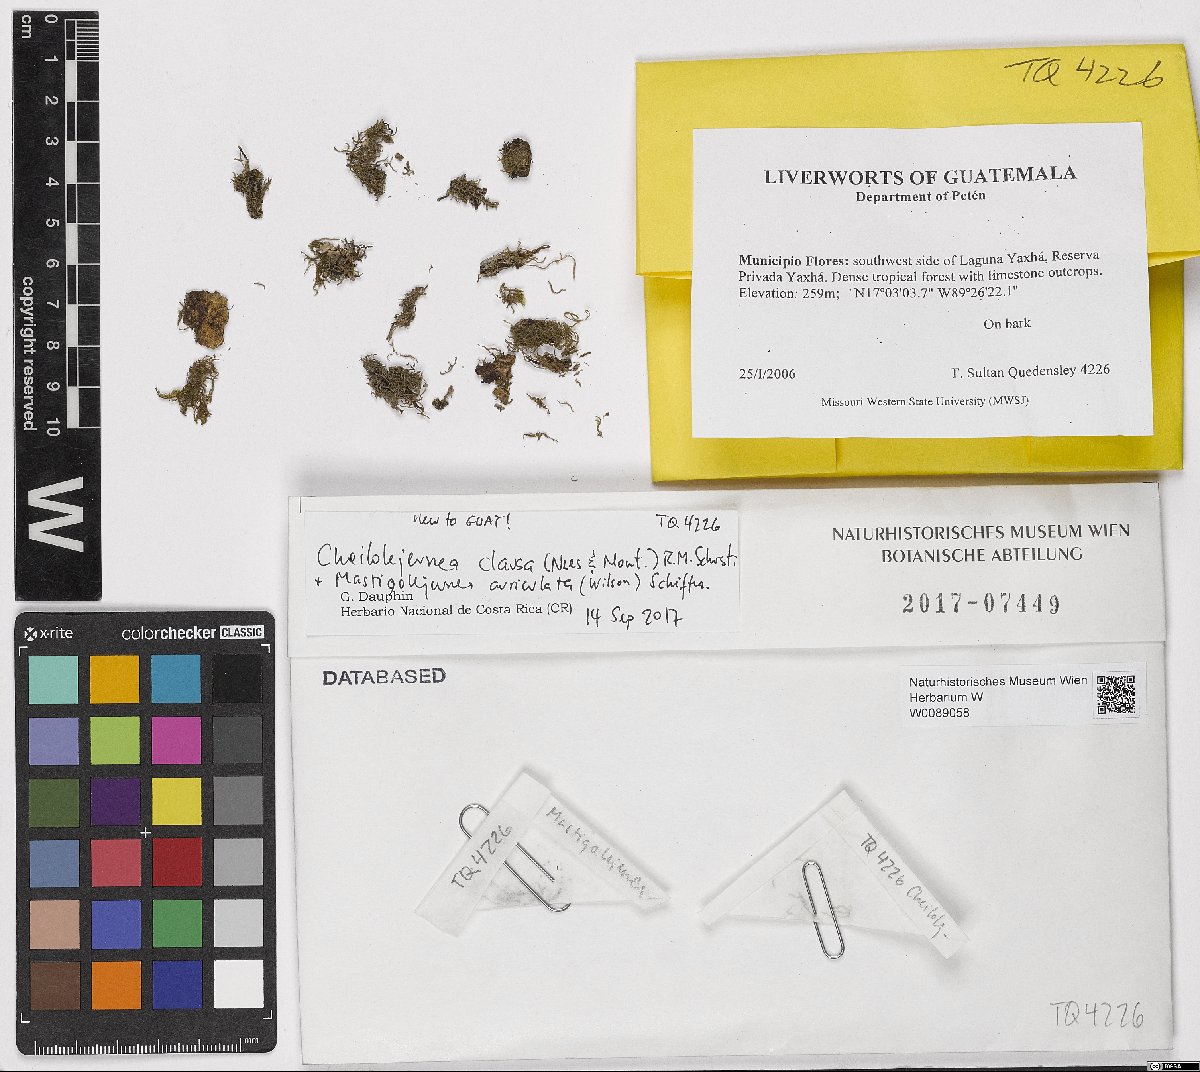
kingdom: Plantae
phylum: Marchantiophyta
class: Jungermanniopsida
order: Porellales
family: Lejeuneaceae
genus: Cheilolejeunea
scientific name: Cheilolejeunea trifaria
